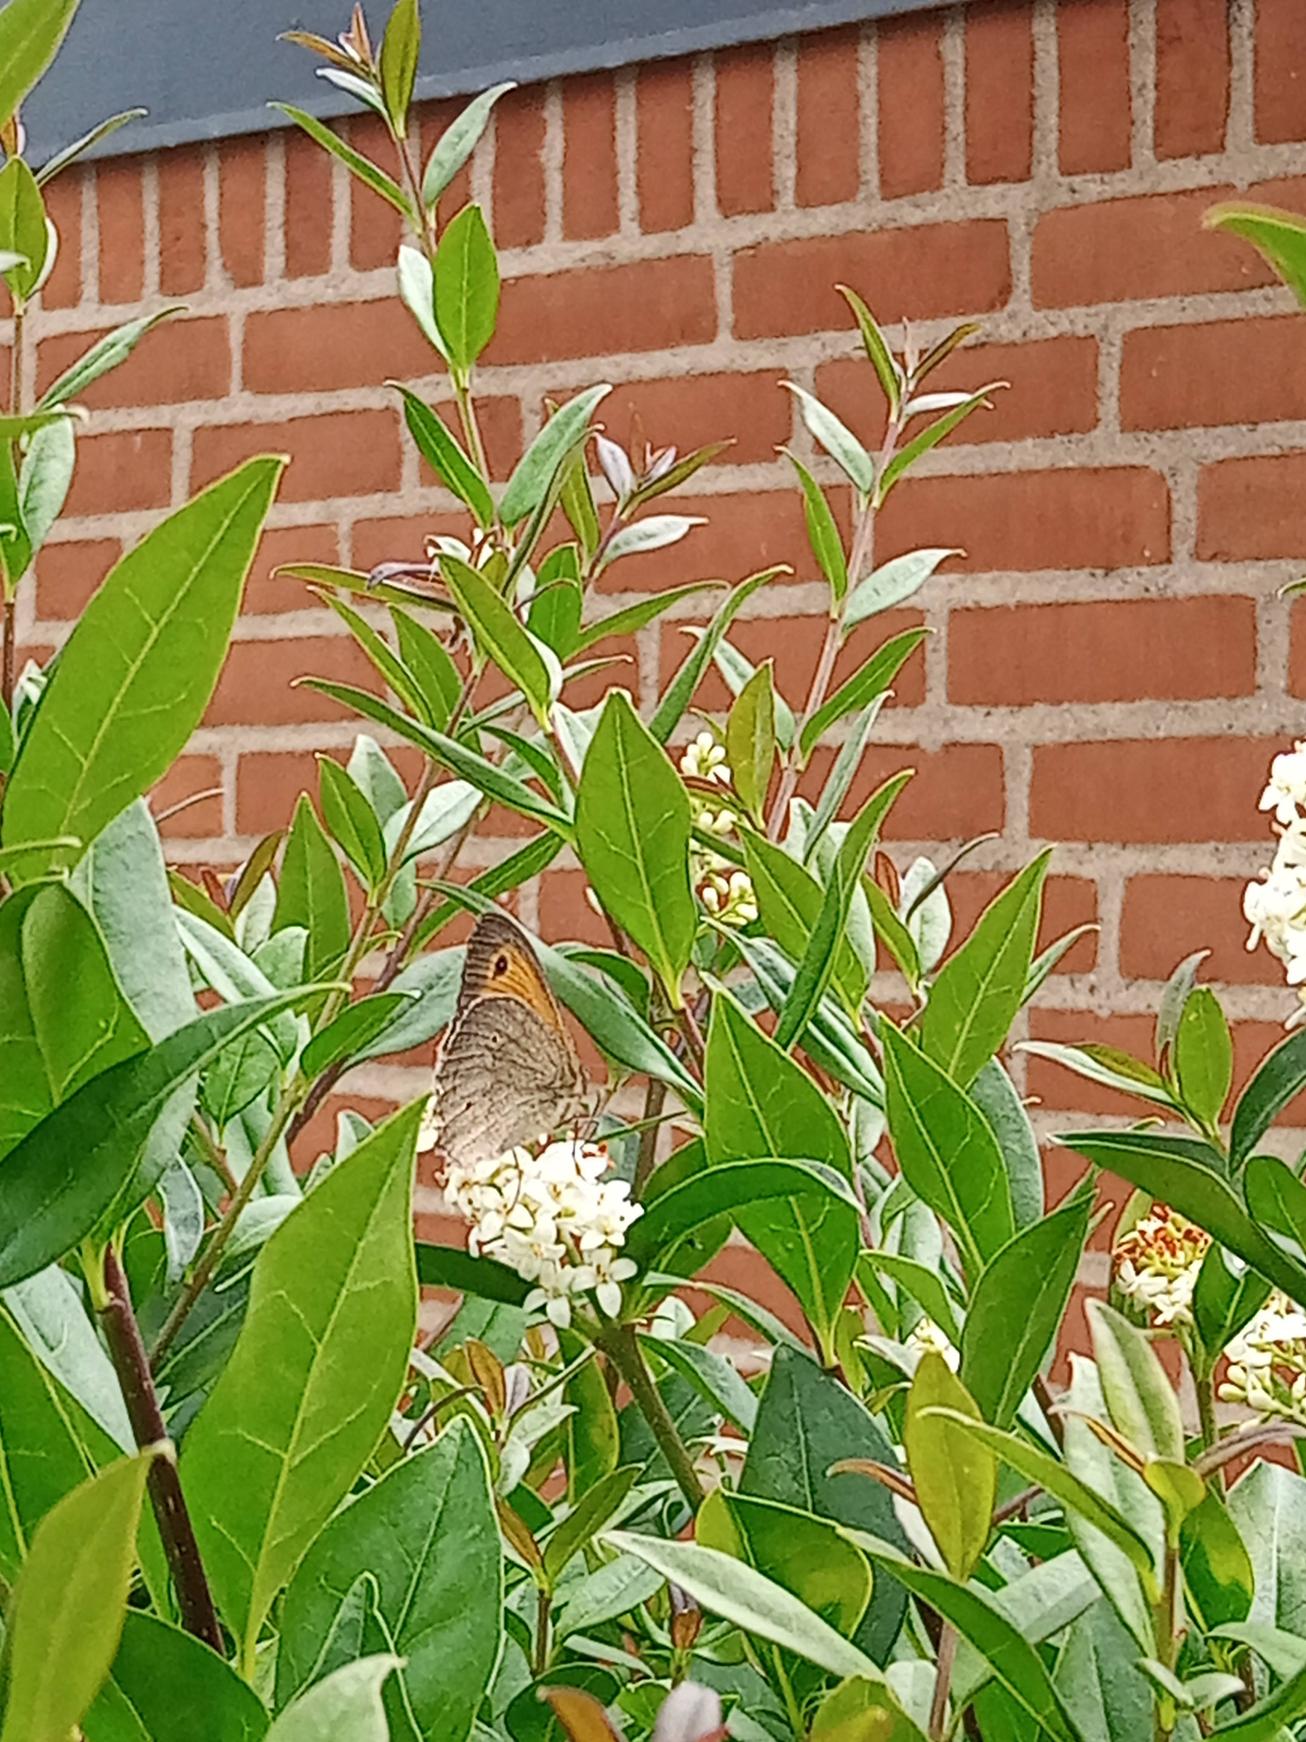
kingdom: Animalia
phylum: Arthropoda
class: Insecta
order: Lepidoptera
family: Nymphalidae
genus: Maniola
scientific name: Maniola jurtina
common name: Græsrandøje
